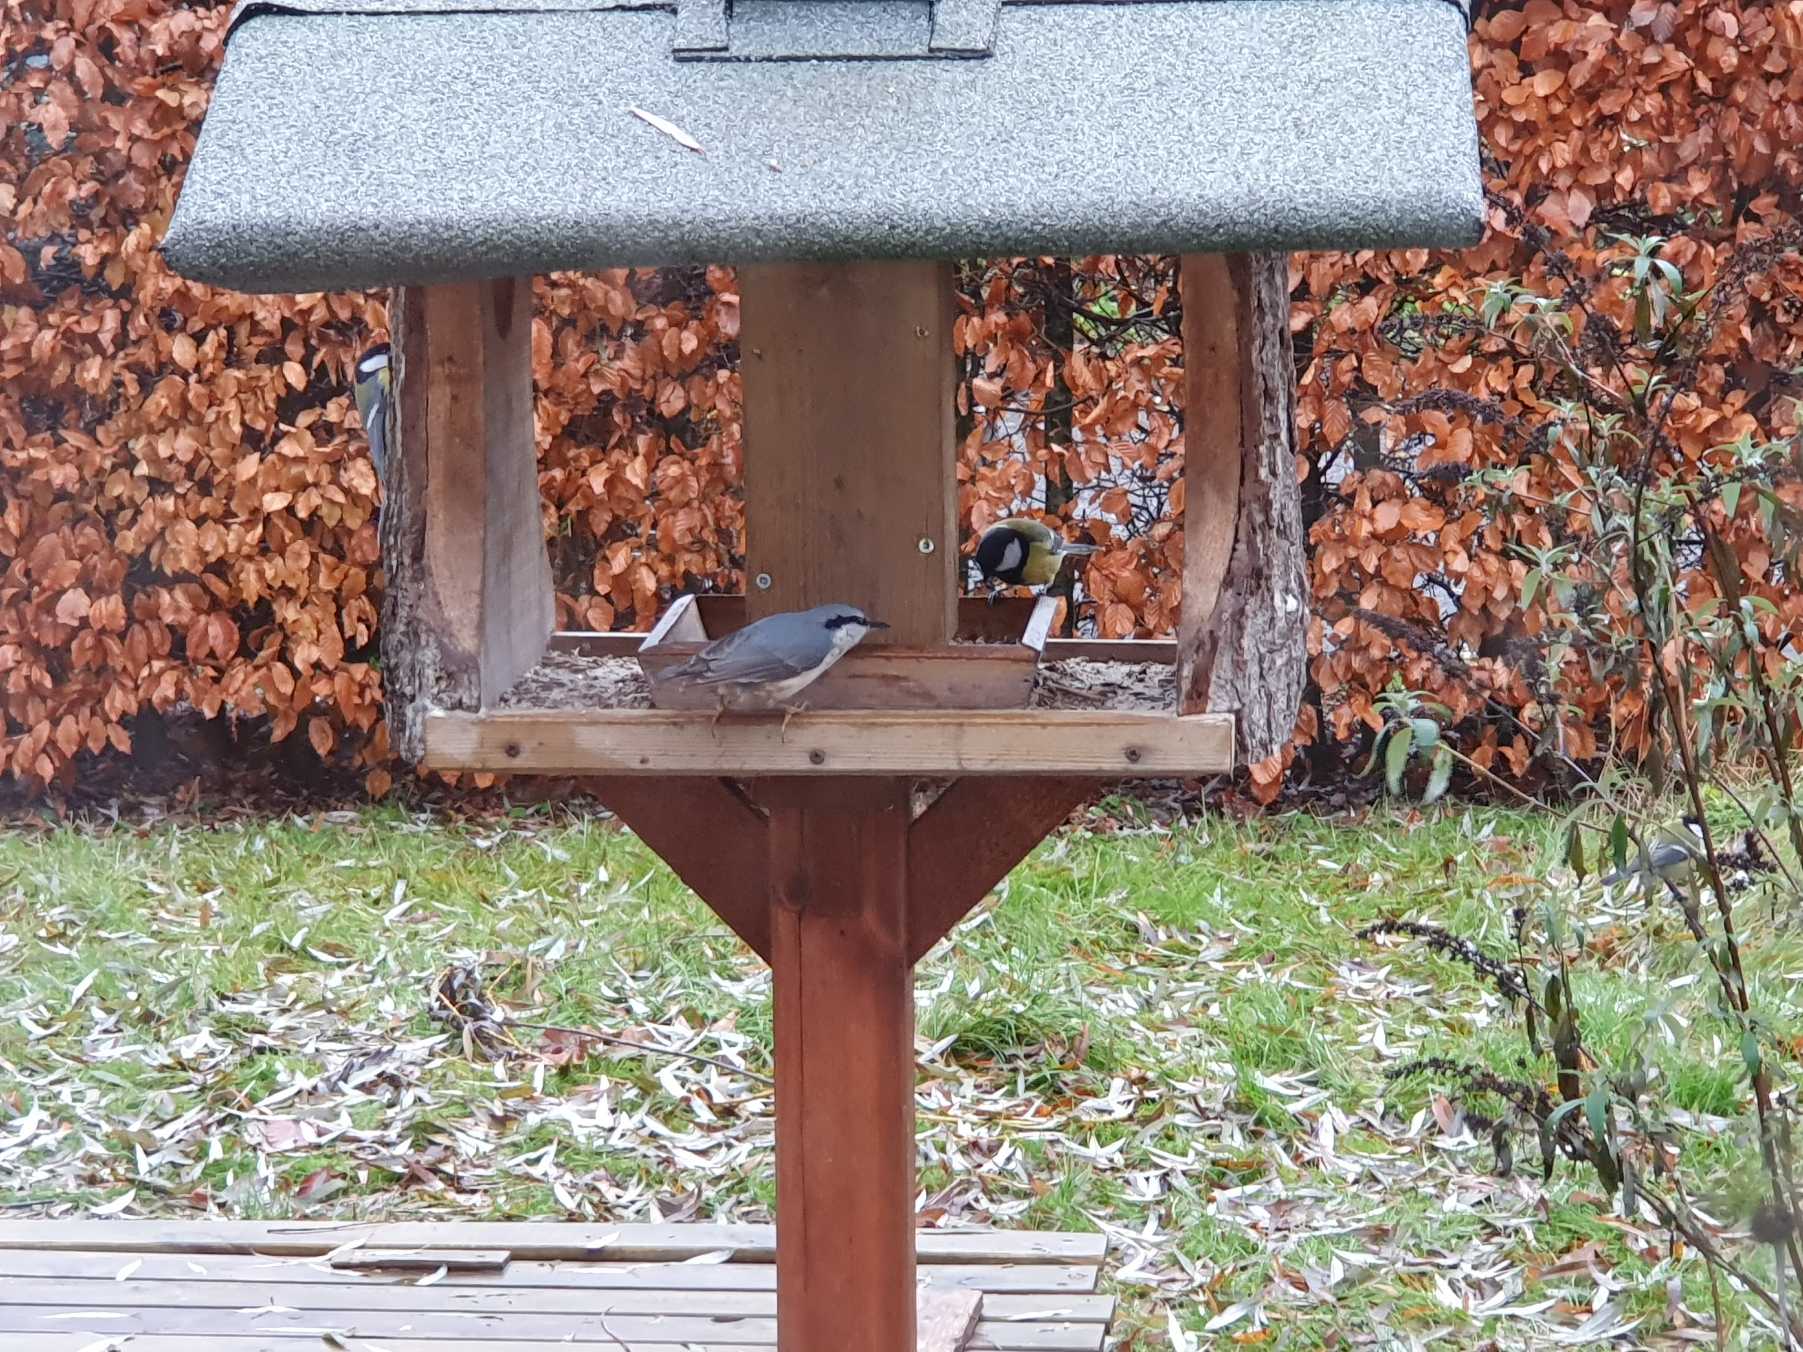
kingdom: Animalia
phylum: Chordata
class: Aves
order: Passeriformes
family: Sittidae
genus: Sitta
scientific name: Sitta europaea
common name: Spætmejse
